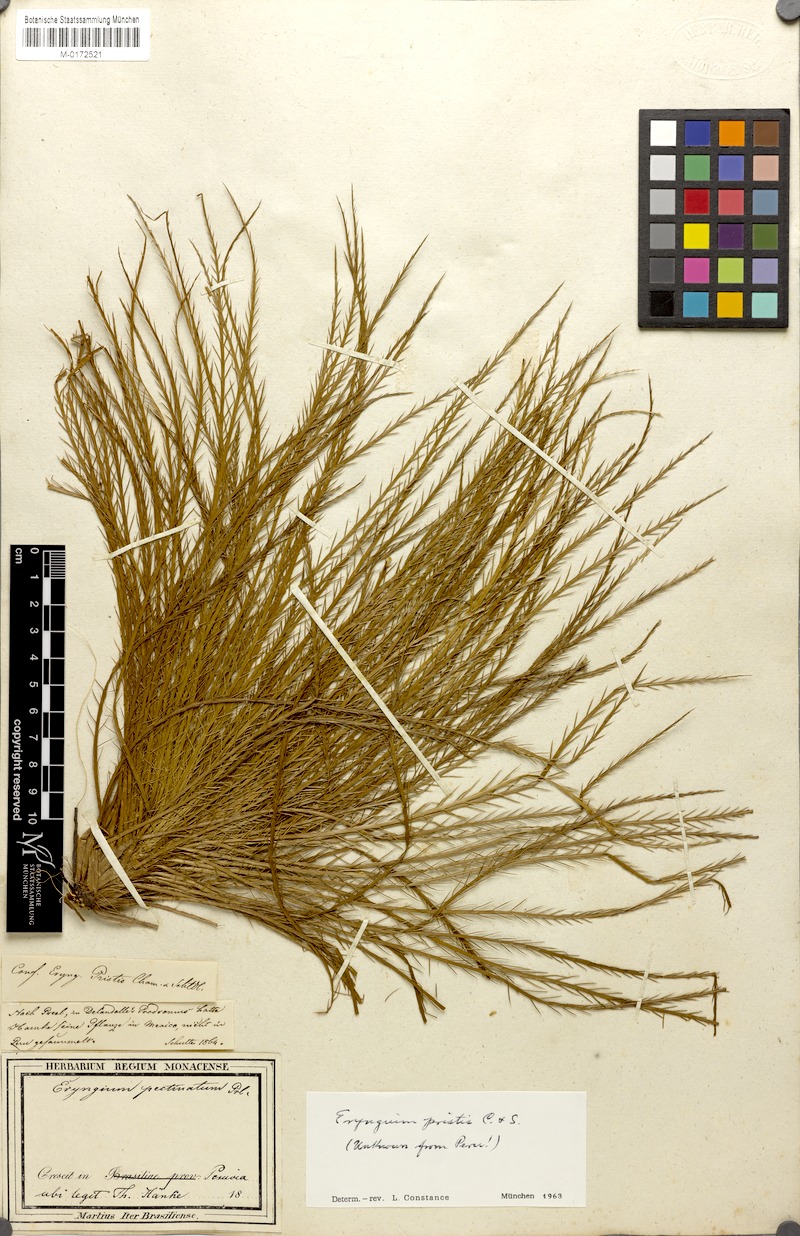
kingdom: Plantae
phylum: Tracheophyta
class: Magnoliopsida
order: Apiales
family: Apiaceae
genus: Eryngium
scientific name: Eryngium pristis
